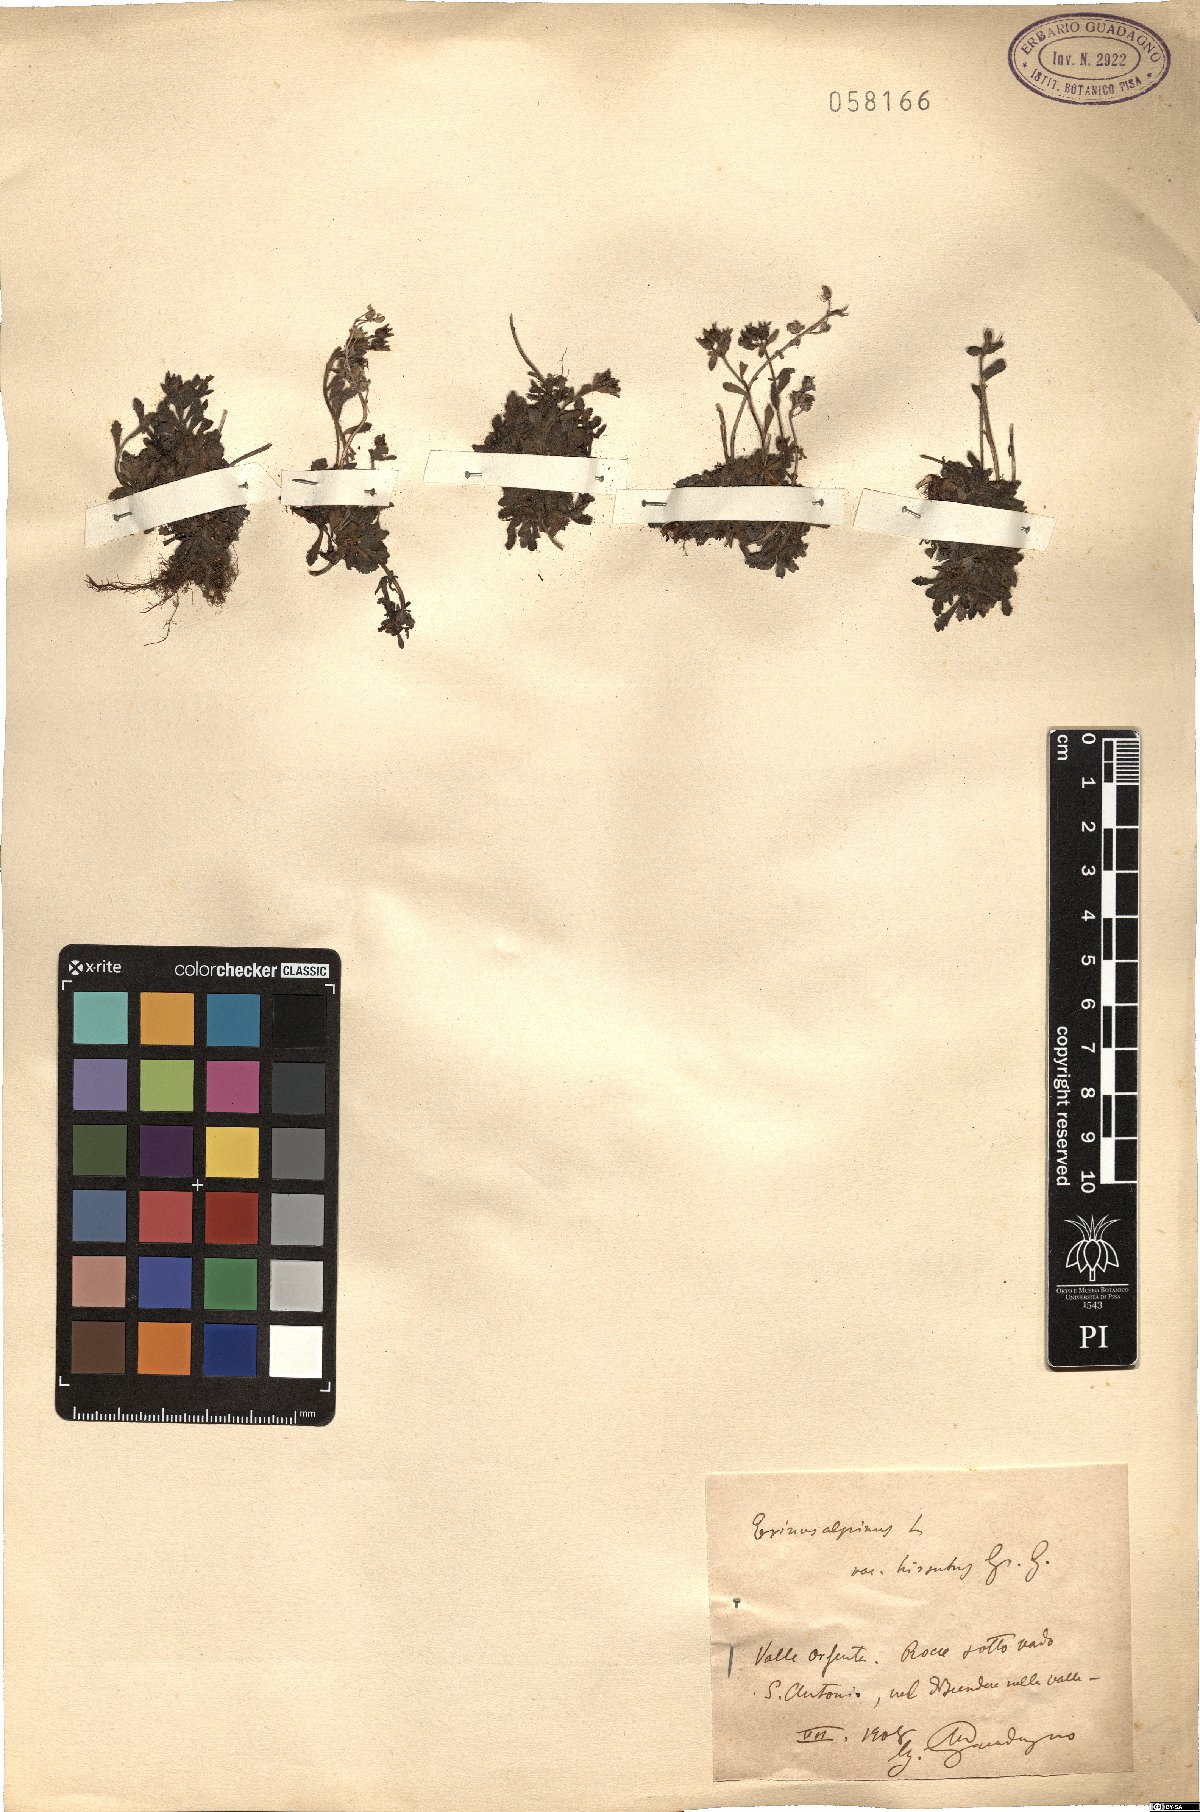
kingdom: Plantae
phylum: Tracheophyta
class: Magnoliopsida
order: Lamiales
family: Plantaginaceae
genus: Erinus
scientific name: Erinus alpinus
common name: Fairy foxglove
